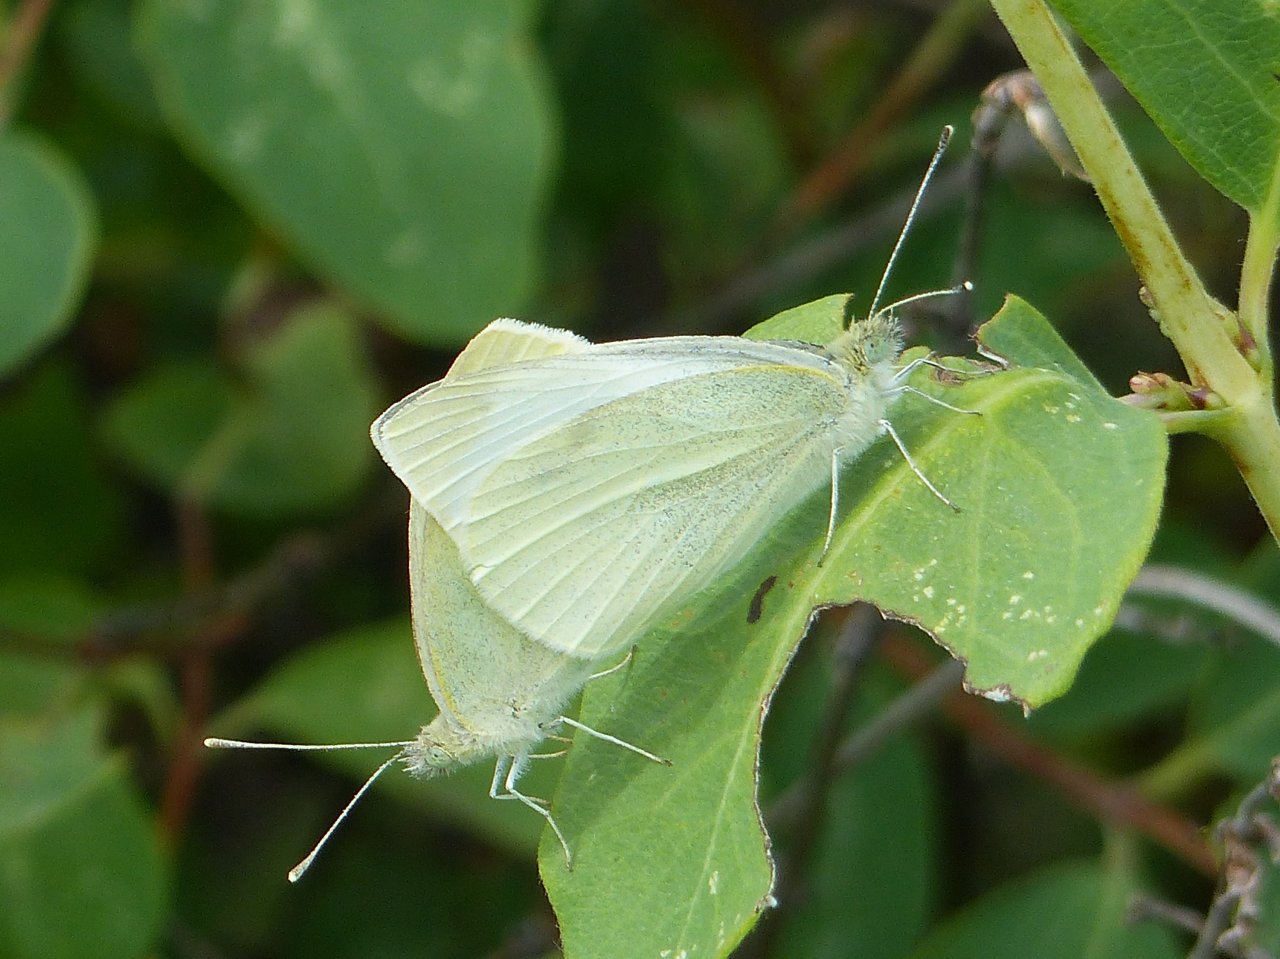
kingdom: Animalia
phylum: Arthropoda
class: Insecta
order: Lepidoptera
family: Pieridae
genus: Pieris
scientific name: Pieris rapae
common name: Cabbage White
